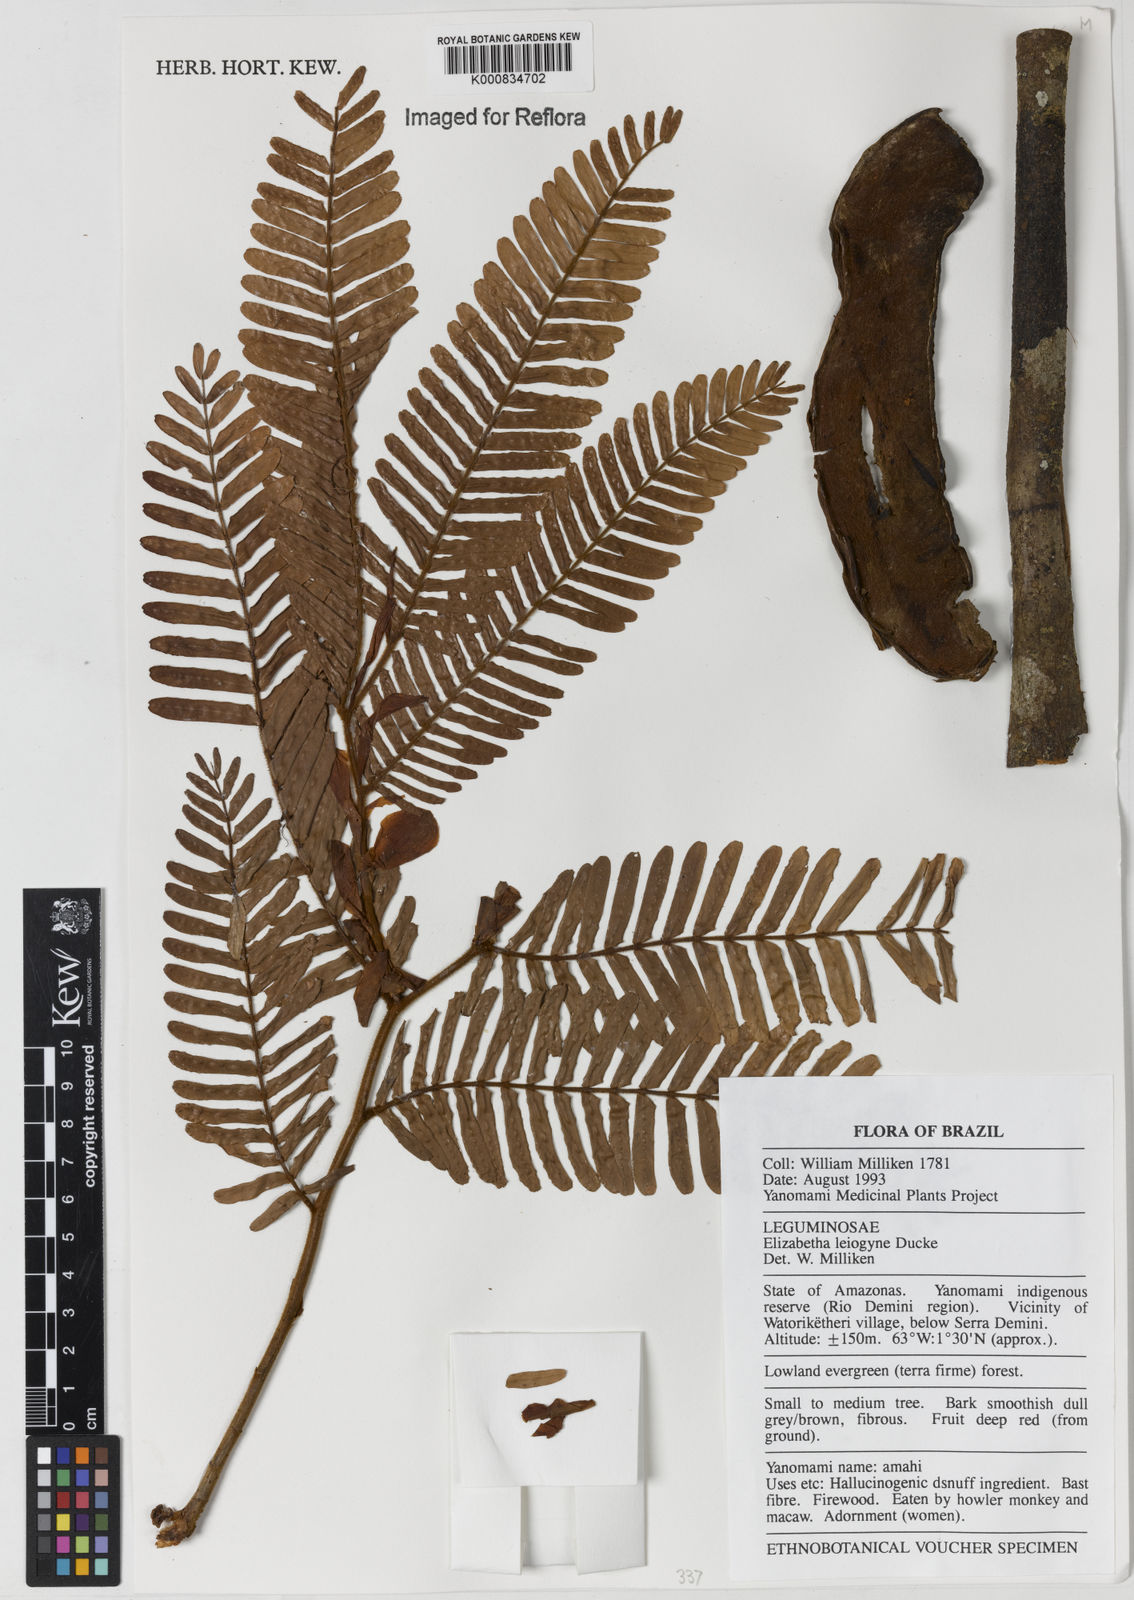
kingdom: Plantae
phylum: Tracheophyta
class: Magnoliopsida
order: Fabales
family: Fabaceae
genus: Paloue
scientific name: Paloue leiogyne
